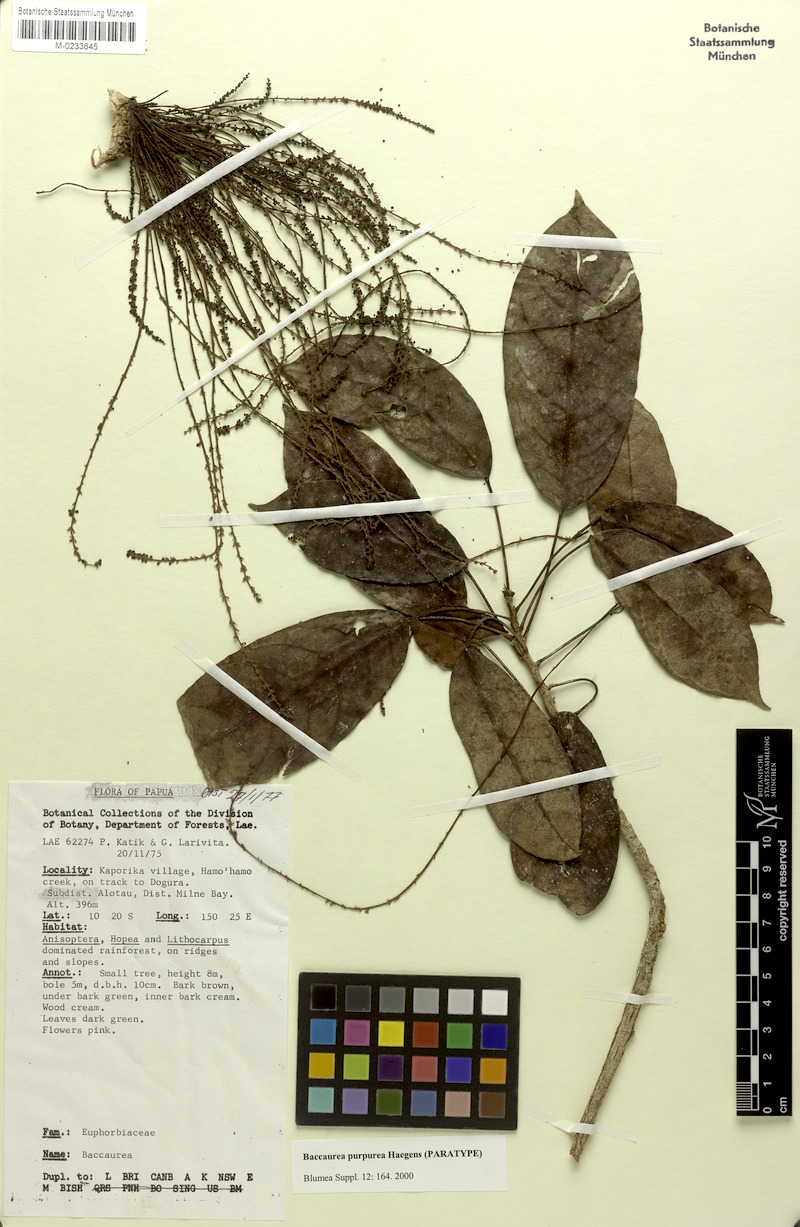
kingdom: Plantae
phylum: Tracheophyta
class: Magnoliopsida
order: Malpighiales
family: Phyllanthaceae
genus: Baccaurea
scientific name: Baccaurea purpurea
